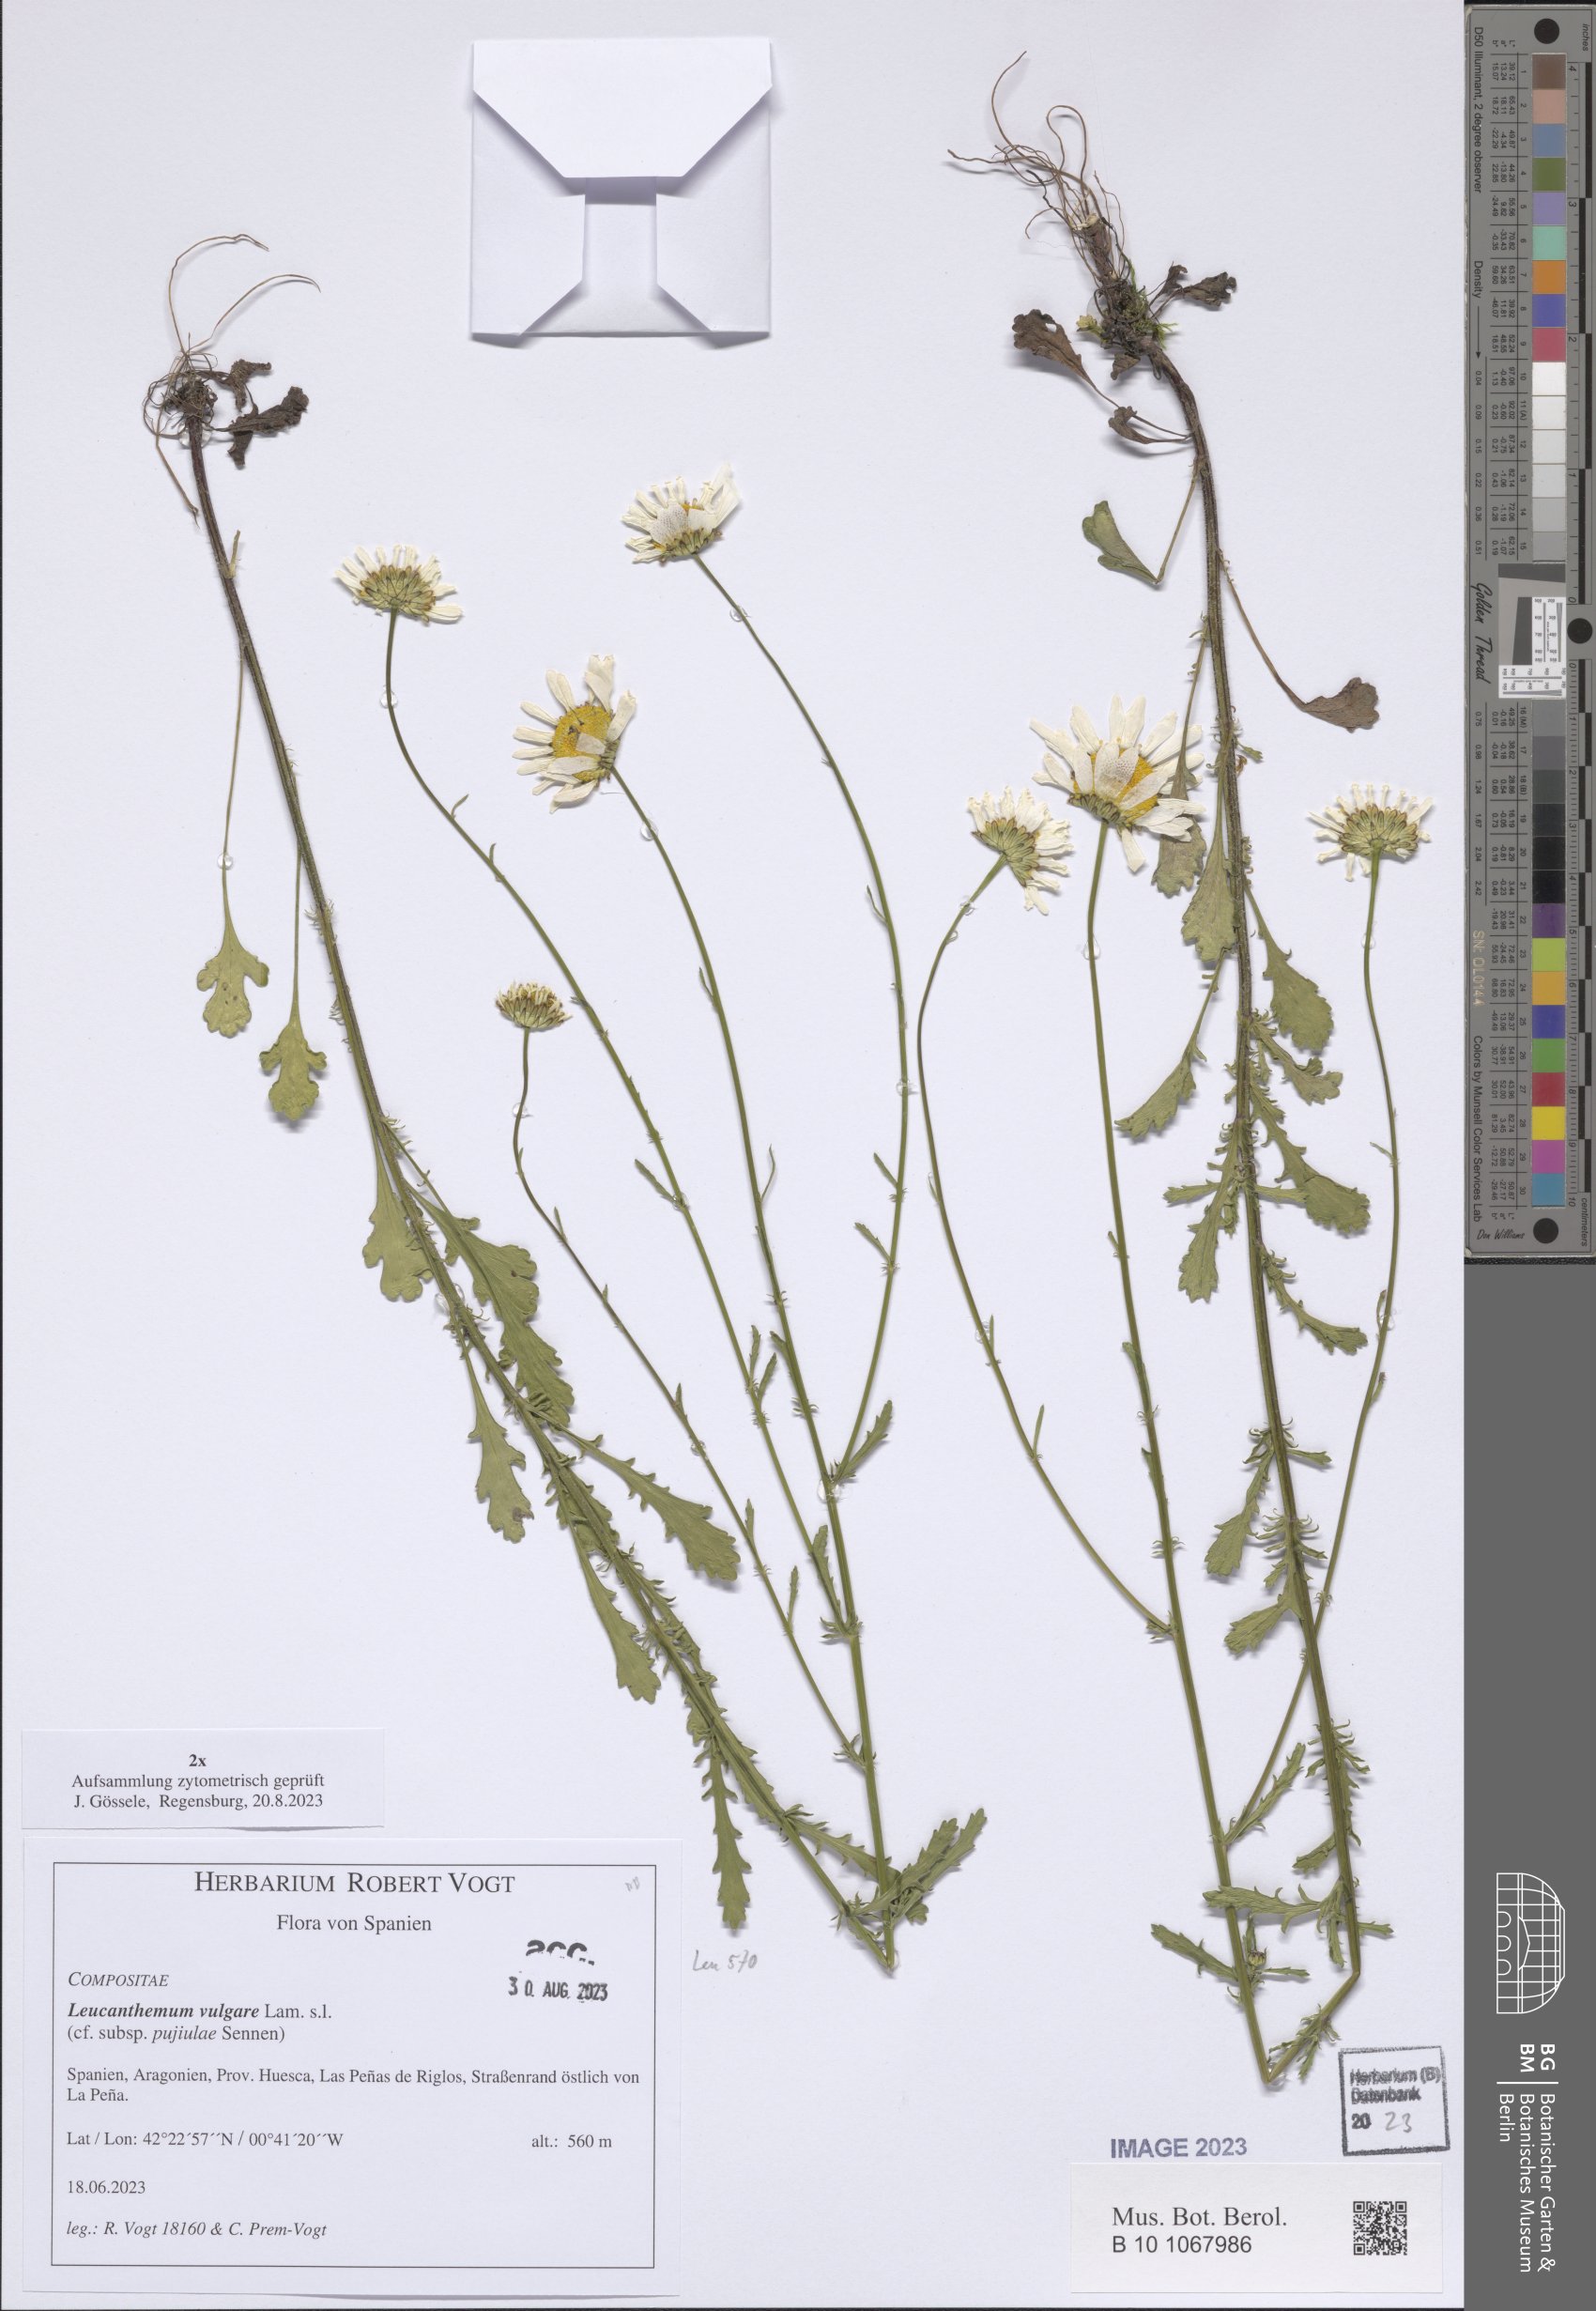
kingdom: Plantae
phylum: Tracheophyta
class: Magnoliopsida
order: Asterales
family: Asteraceae
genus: Leucanthemum
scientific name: Leucanthemum vulgare
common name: Oxeye daisy
